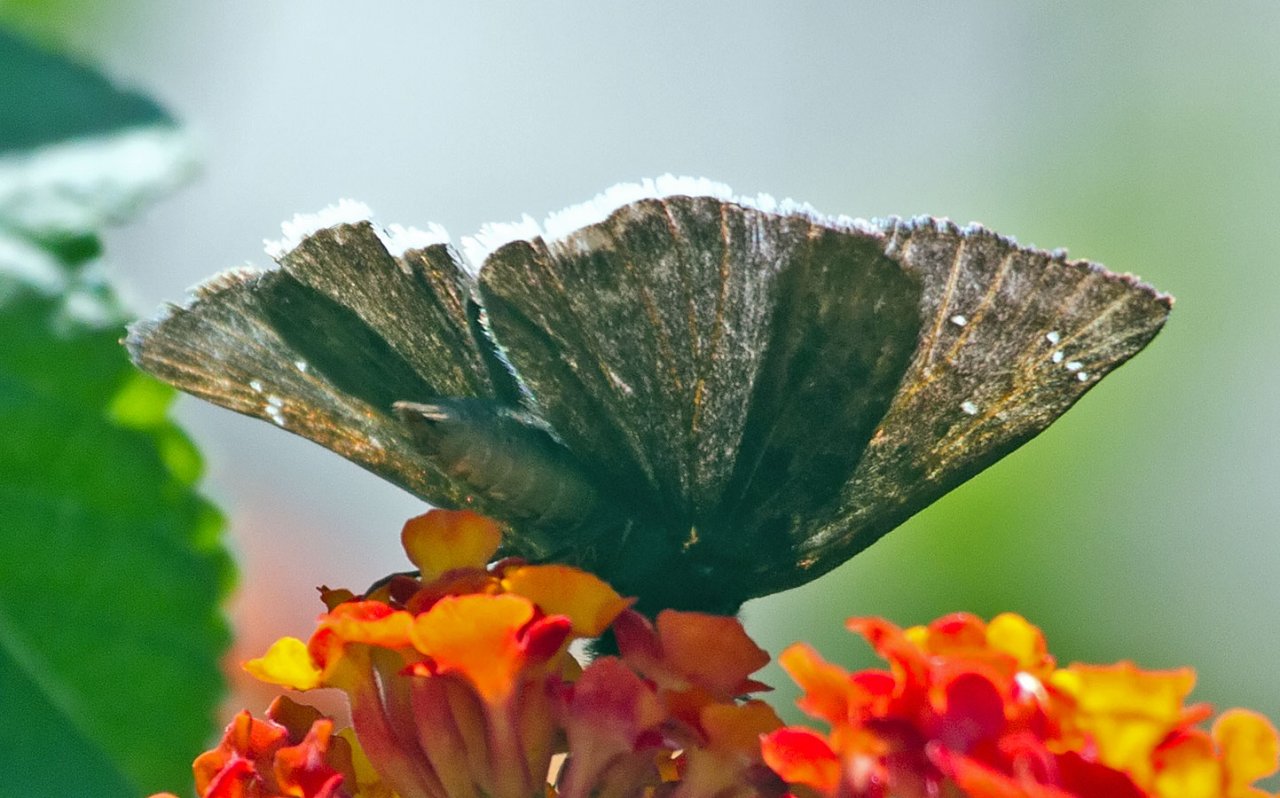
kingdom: Animalia
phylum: Arthropoda
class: Insecta
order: Lepidoptera
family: Hesperiidae
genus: Erynnis
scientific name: Erynnis tristis
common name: Mournful Duskywing
